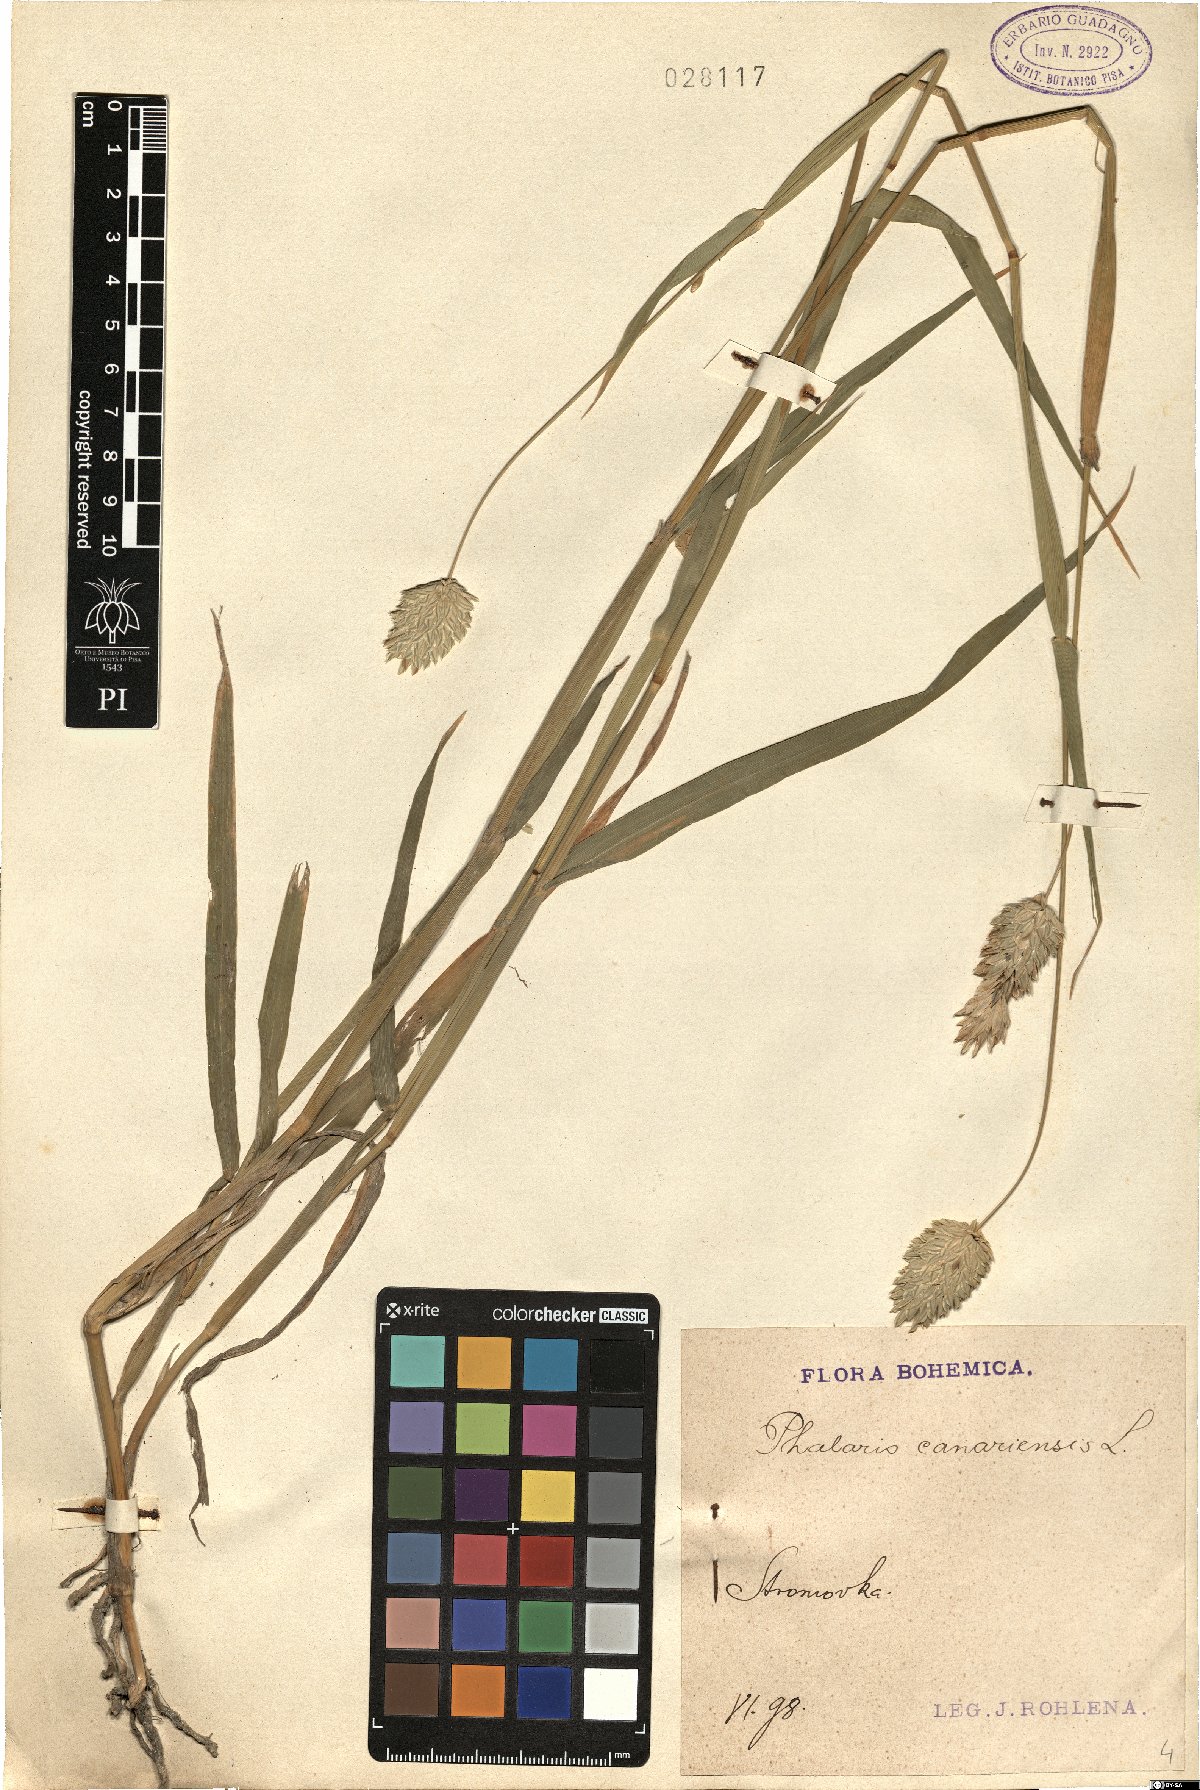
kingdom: Plantae
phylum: Tracheophyta
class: Liliopsida
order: Poales
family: Poaceae
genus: Phalaris
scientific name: Phalaris canariensis
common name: Annual canarygrass
